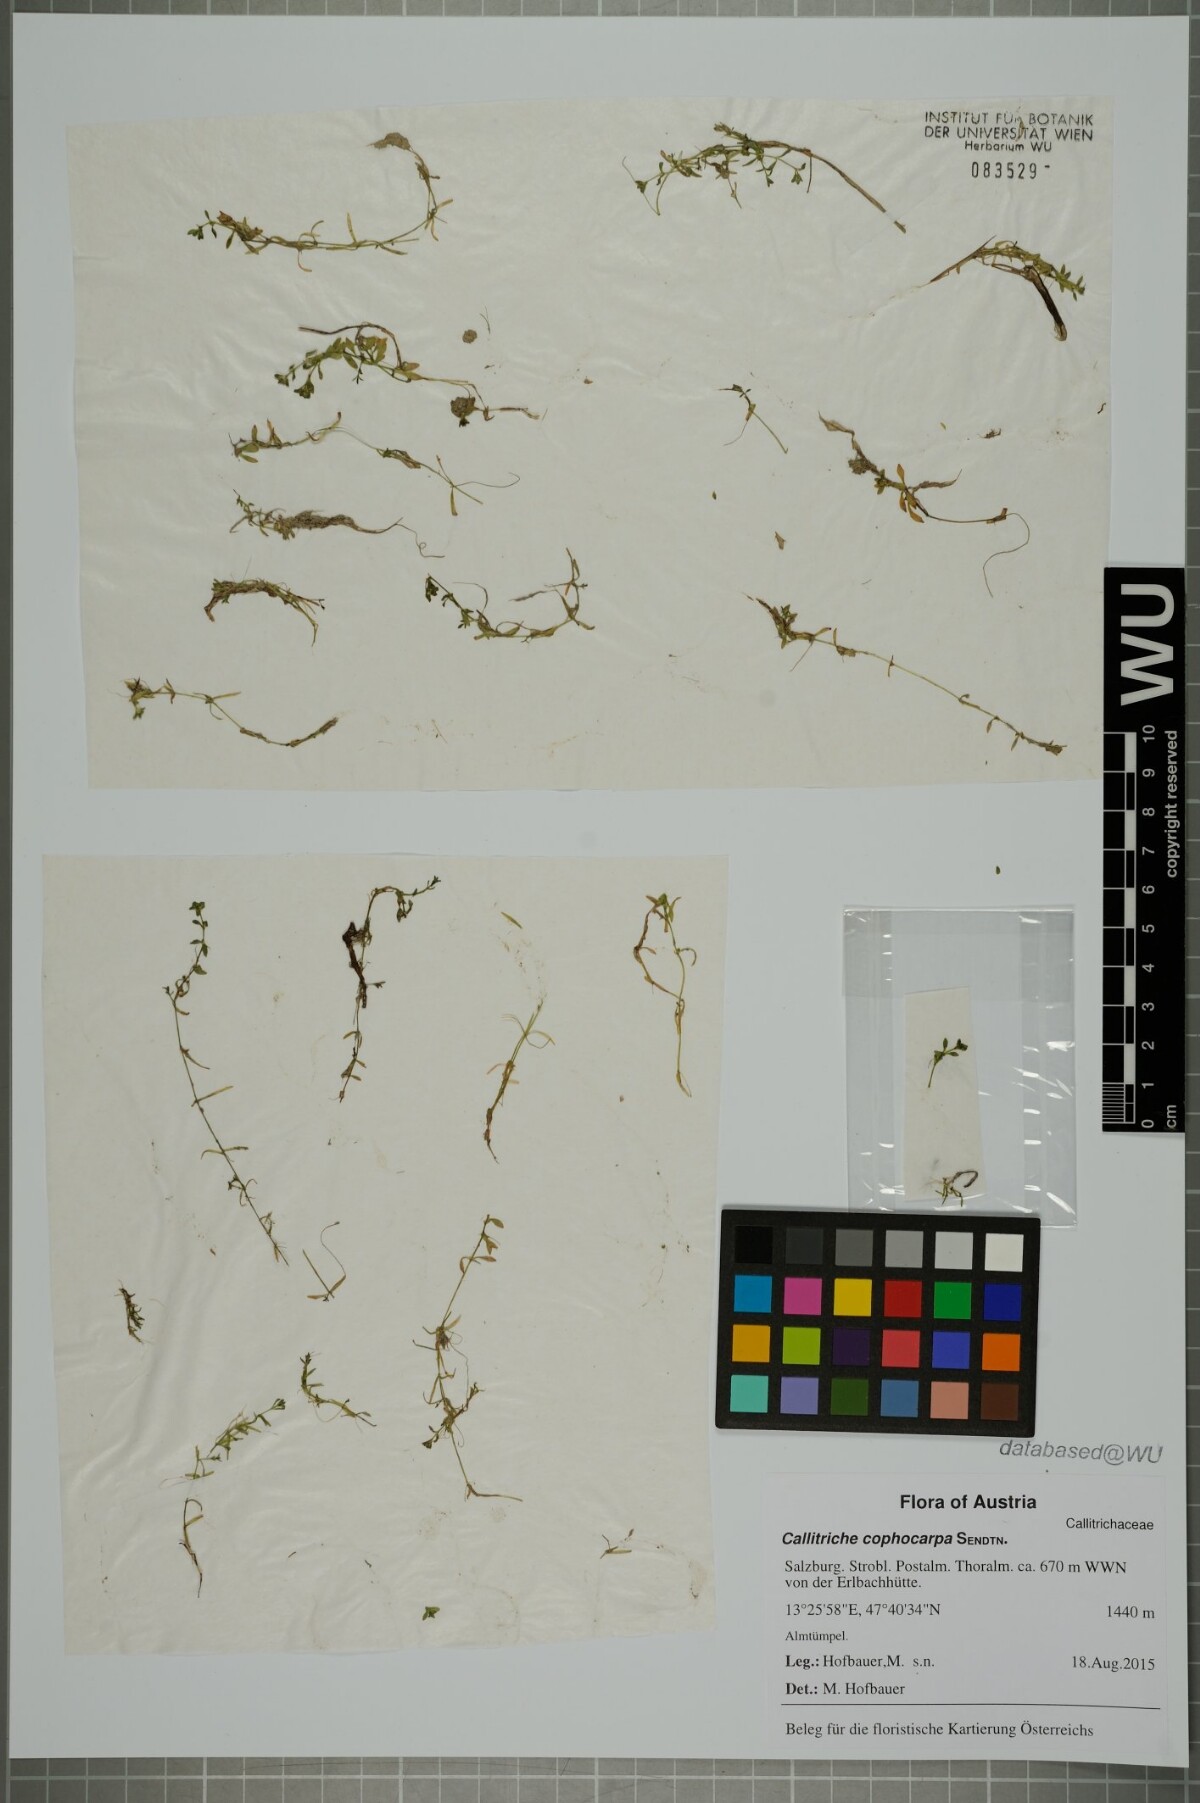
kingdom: Plantae
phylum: Tracheophyta
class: Magnoliopsida
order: Lamiales
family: Plantaginaceae
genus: Callitriche
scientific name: Callitriche cophocarpa
